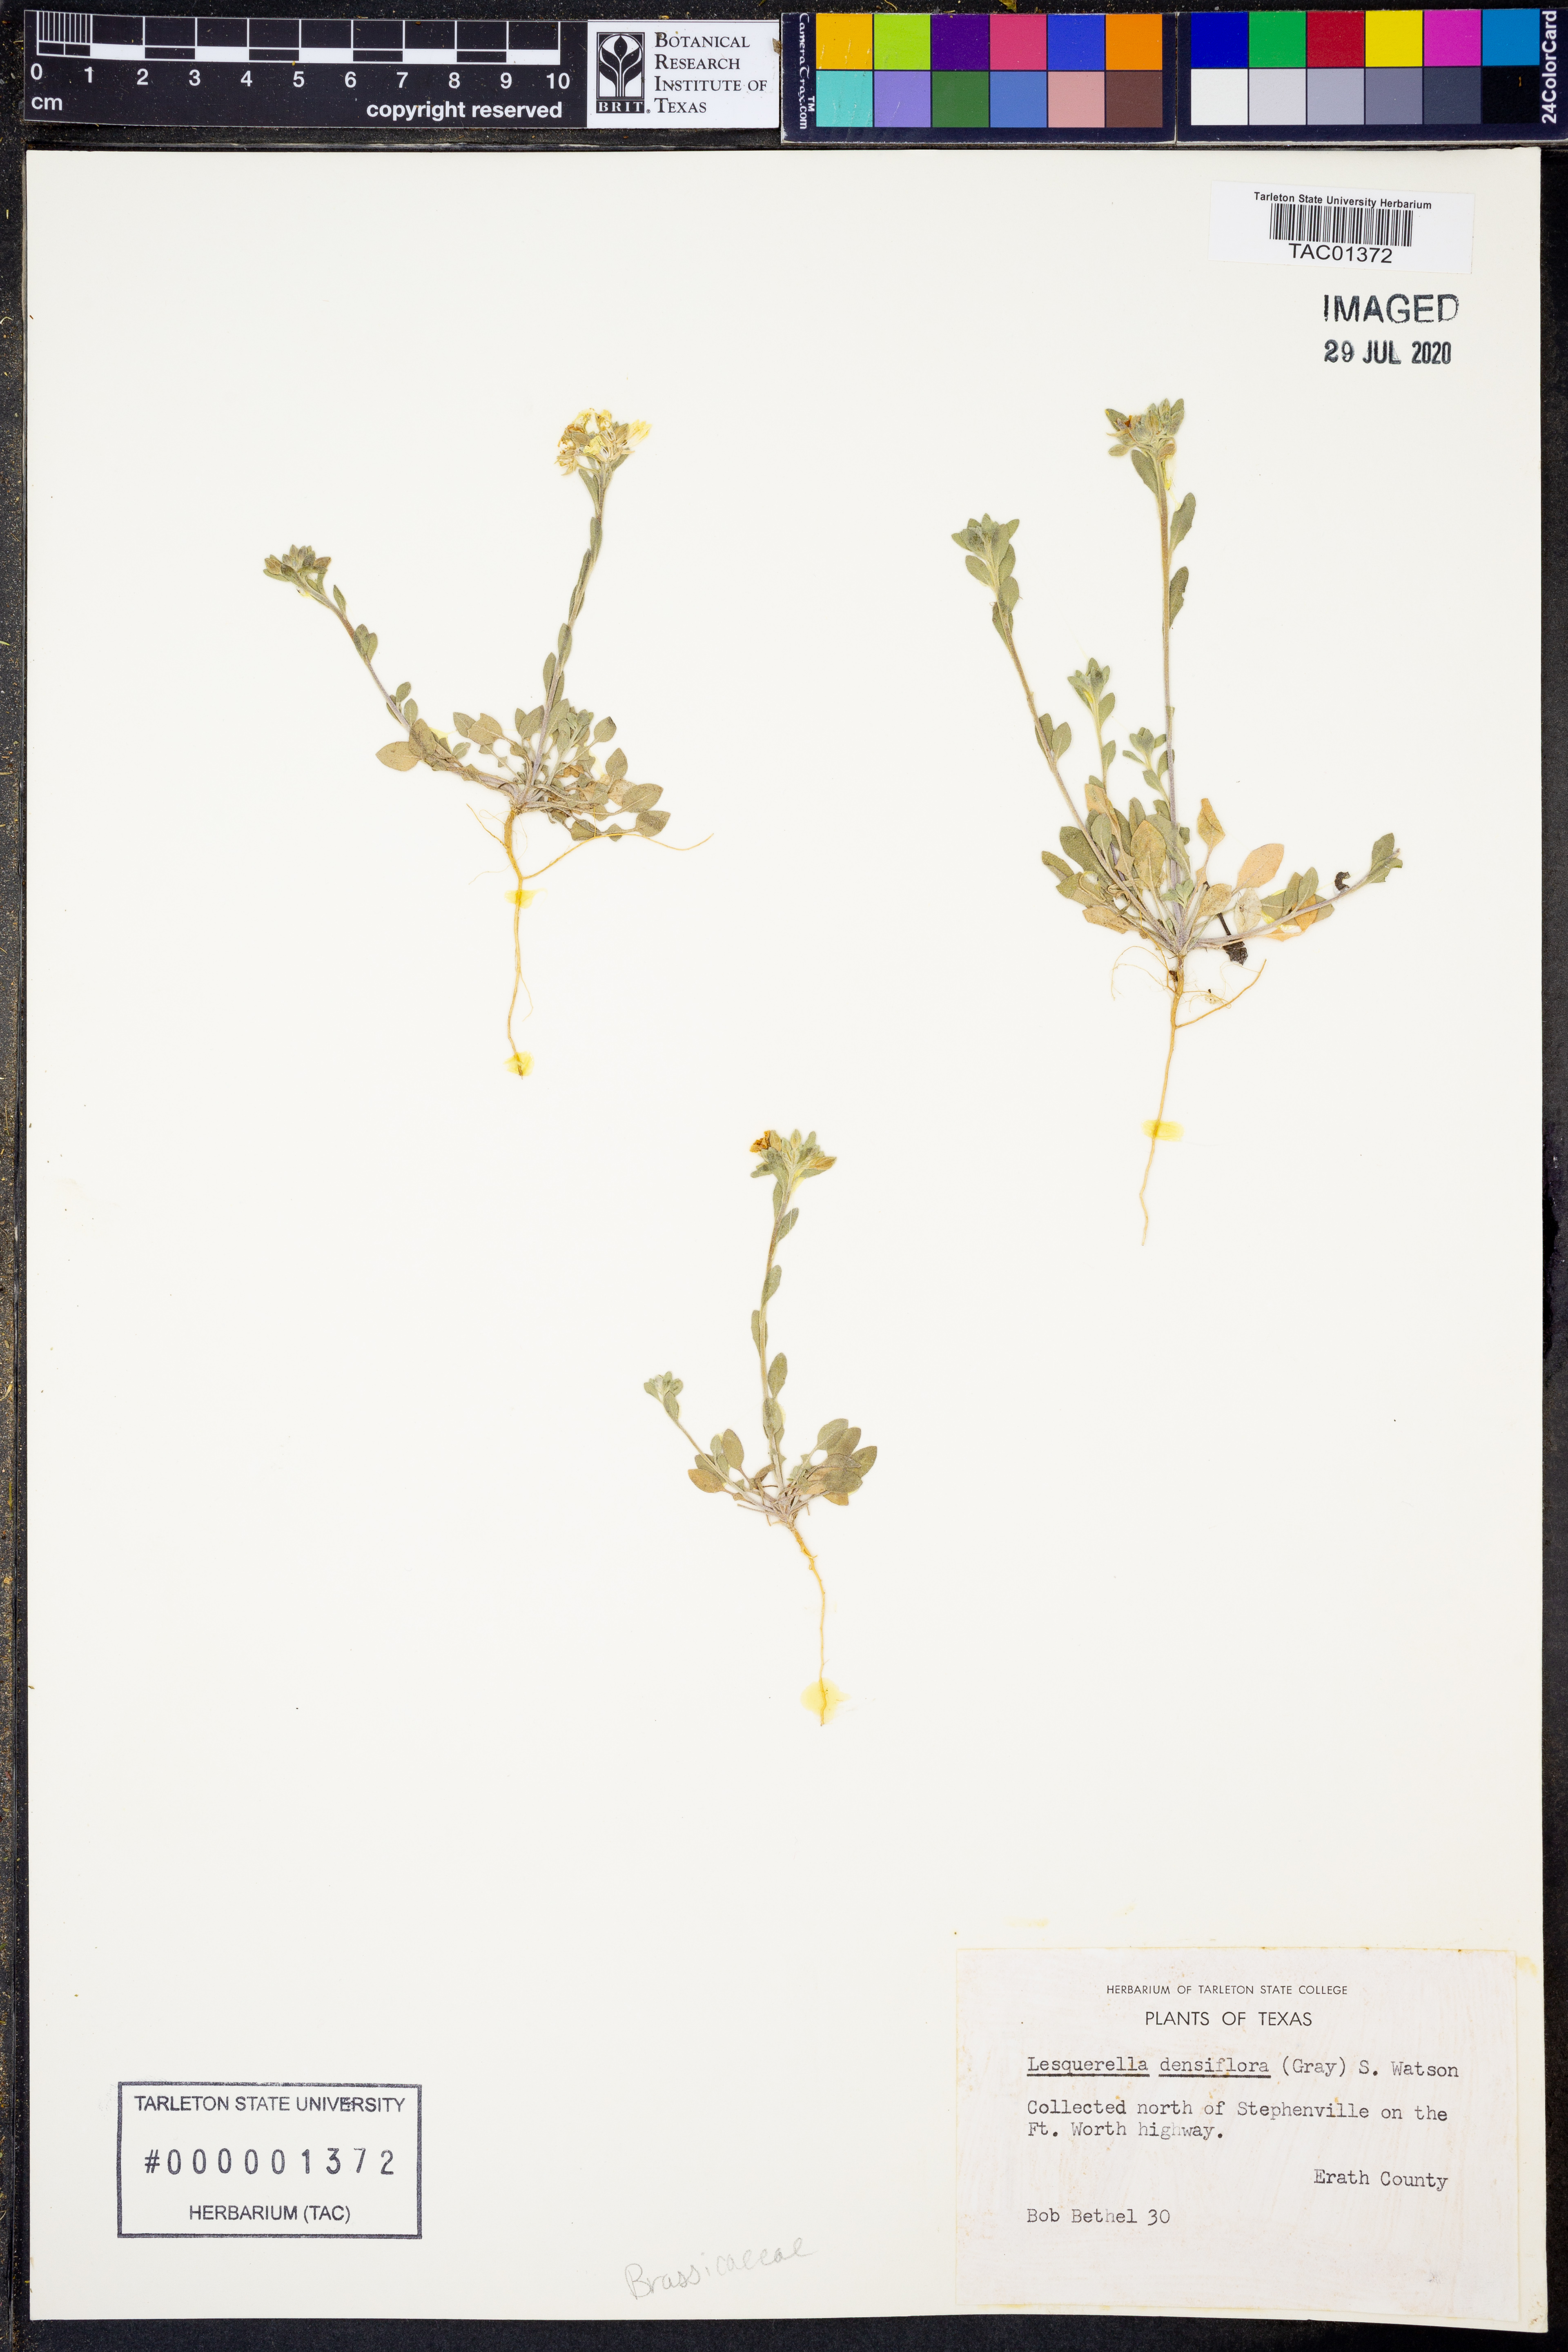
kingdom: Plantae
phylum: Tracheophyta
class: Magnoliopsida
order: Brassicales
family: Brassicaceae
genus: Physaria
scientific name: Physaria densiflora
